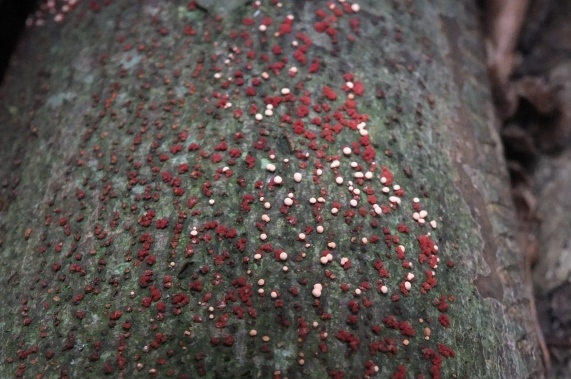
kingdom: Fungi
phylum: Ascomycota
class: Sordariomycetes
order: Hypocreales
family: Nectriaceae
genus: Nectria
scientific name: Nectria cinnabarina
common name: almindelig cinnobersvamp
